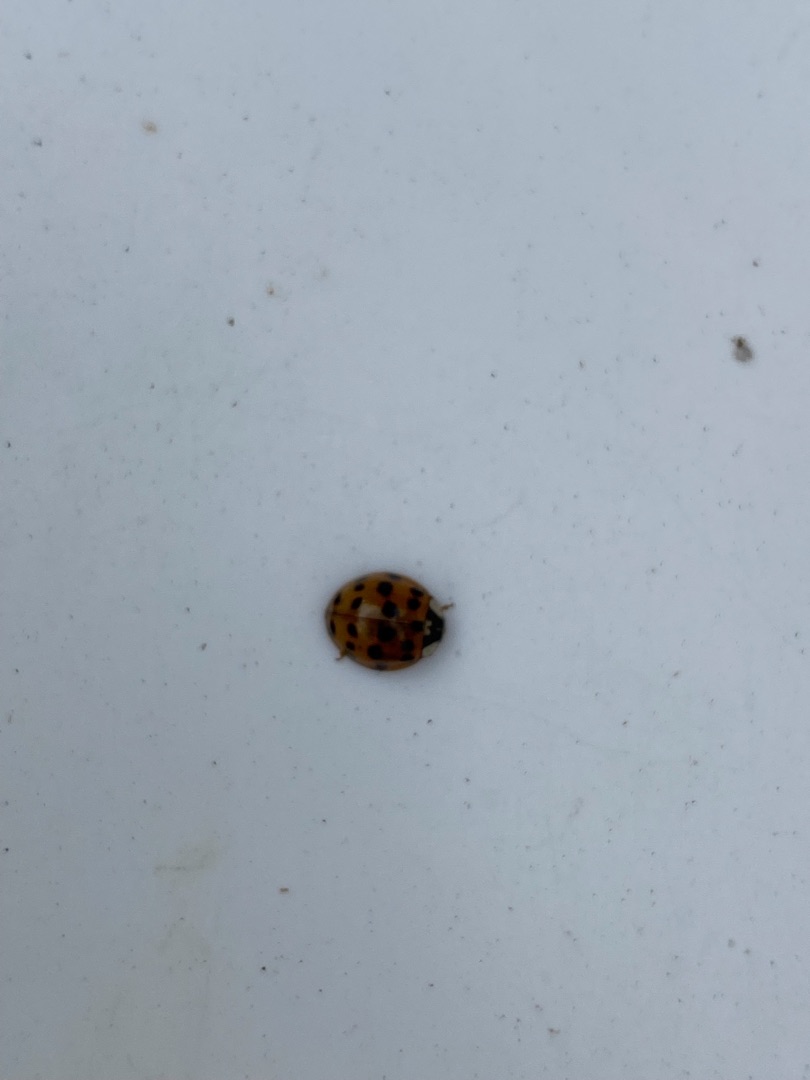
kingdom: Animalia
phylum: Arthropoda
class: Insecta
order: Coleoptera
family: Coccinellidae
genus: Harmonia
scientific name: Harmonia axyridis
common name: Harlekinmariehøne
